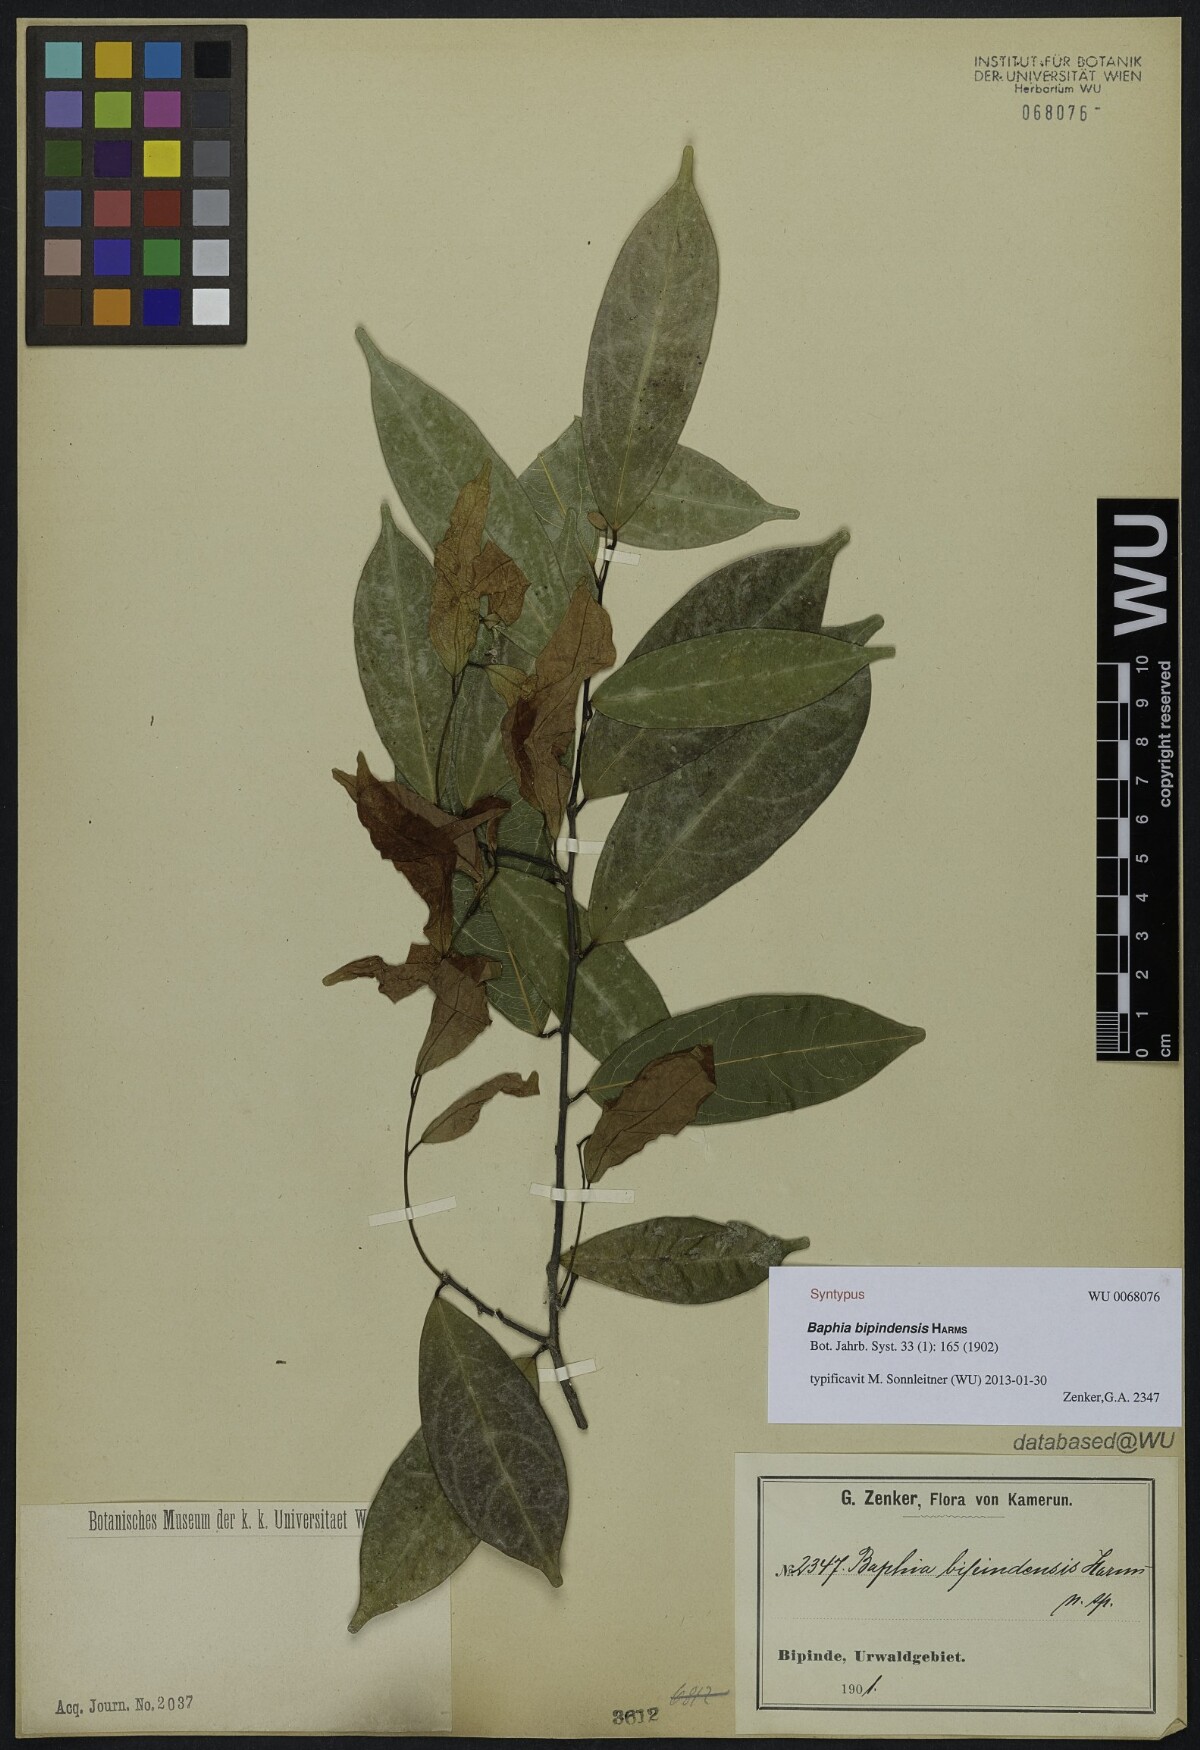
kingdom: Plantae
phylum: Tracheophyta
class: Magnoliopsida
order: Fabales
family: Fabaceae
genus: Baphia
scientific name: Baphia buettneri
